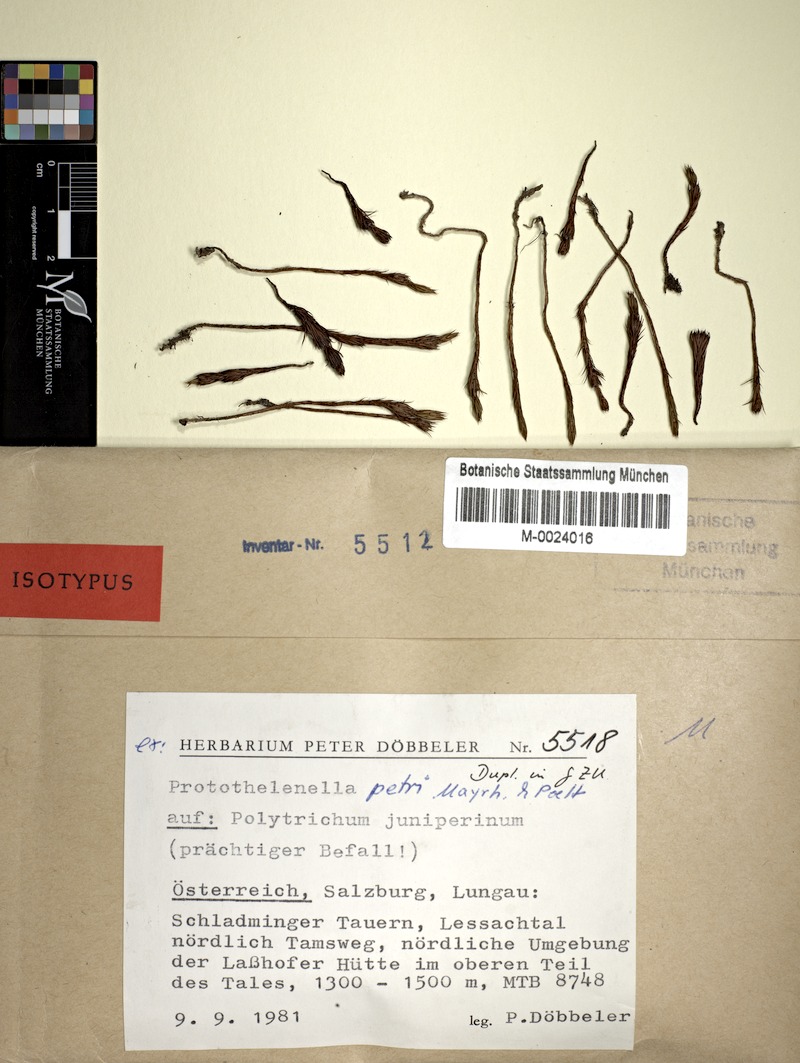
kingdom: Plantae
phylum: Bryophyta
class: Polytrichopsida
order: Polytrichales
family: Polytrichaceae
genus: Polytrichum
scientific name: Polytrichum
